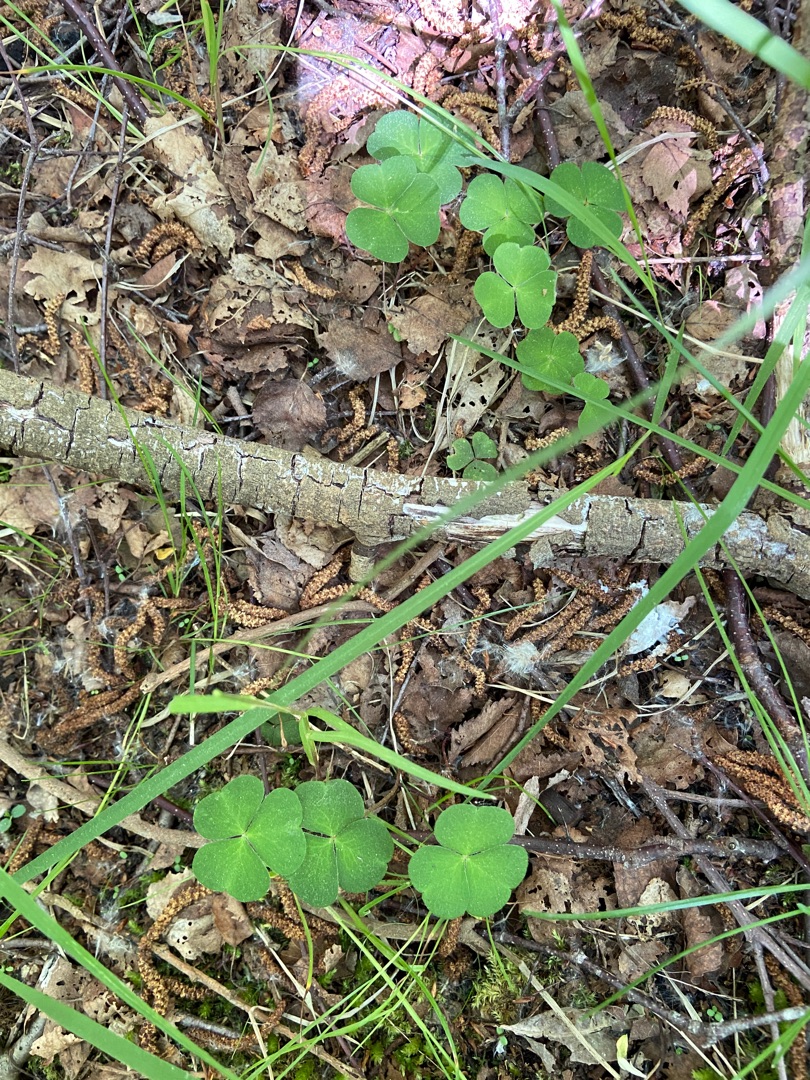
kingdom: Plantae
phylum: Tracheophyta
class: Magnoliopsida
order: Oxalidales
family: Oxalidaceae
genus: Oxalis
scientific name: Oxalis acetosella
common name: Skovsyre
